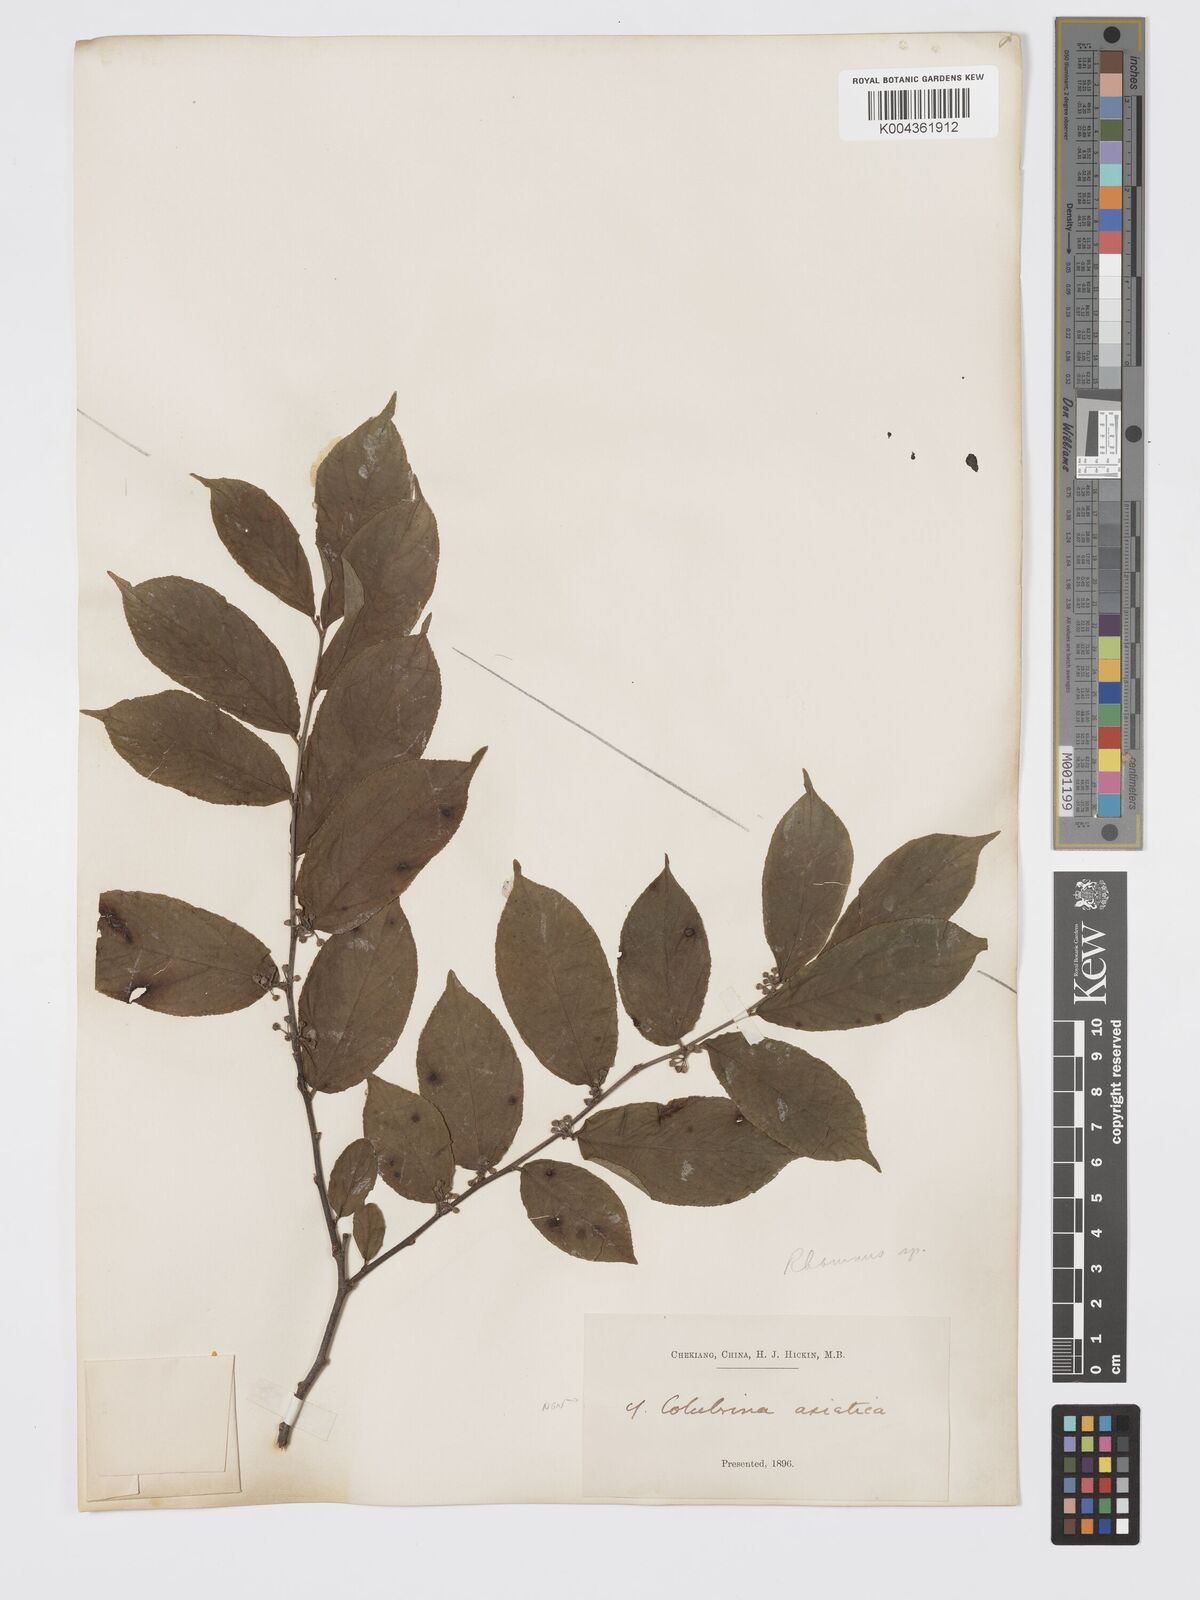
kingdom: Plantae
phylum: Tracheophyta
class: Magnoliopsida
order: Rosales
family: Rhamnaceae
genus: Colubrina
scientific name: Colubrina asiatica
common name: Asian nakedwood
